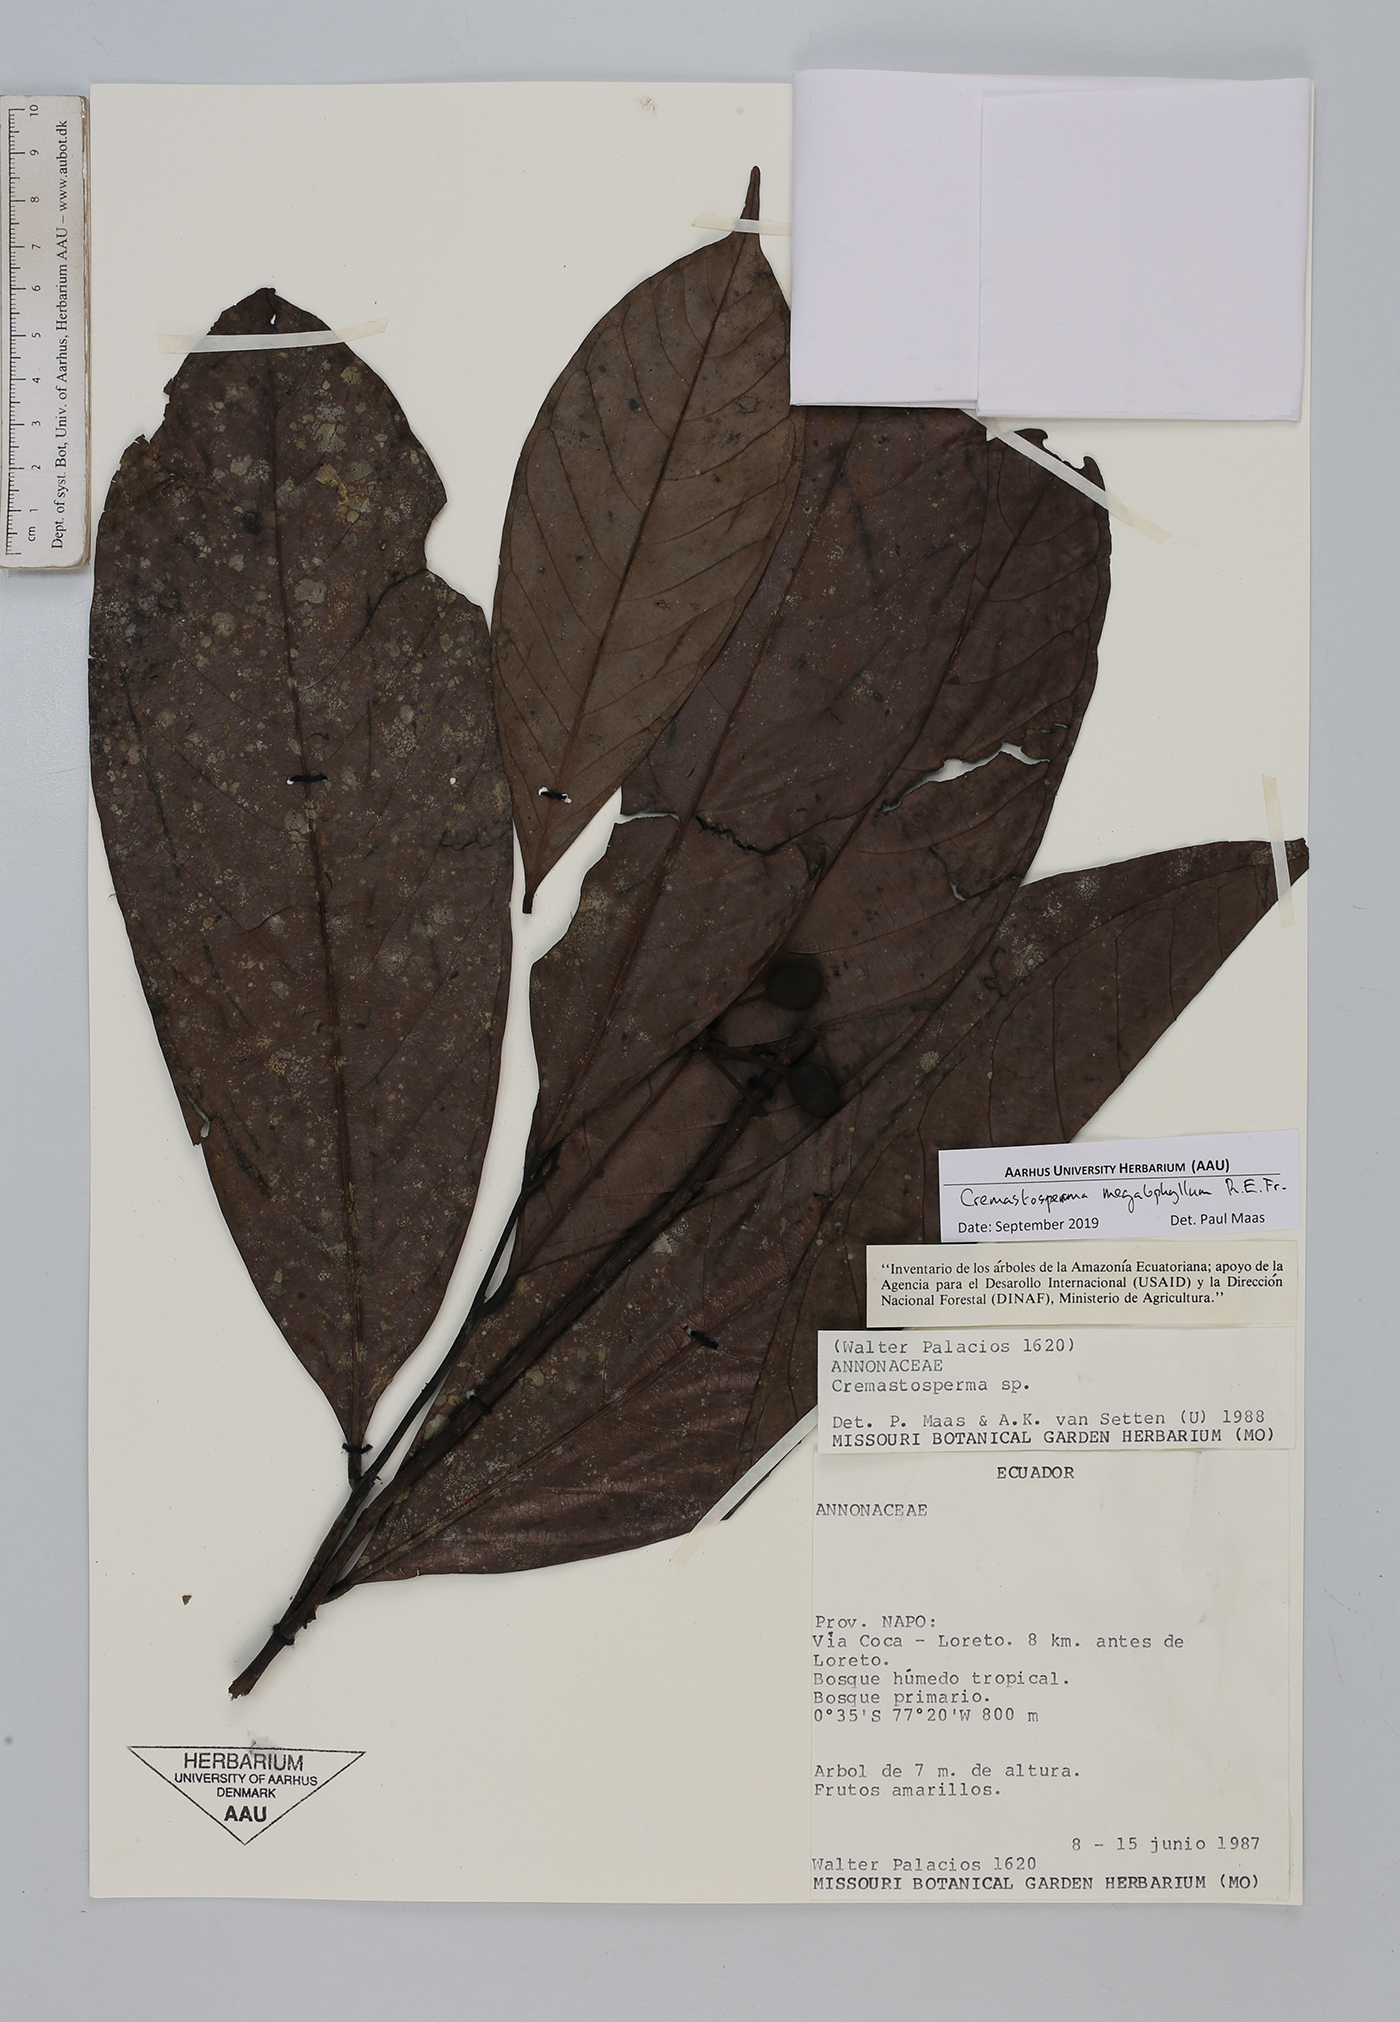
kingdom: Plantae
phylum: Tracheophyta
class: Magnoliopsida
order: Magnoliales
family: Annonaceae
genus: Cremastosperma
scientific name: Cremastosperma megalophyllum
